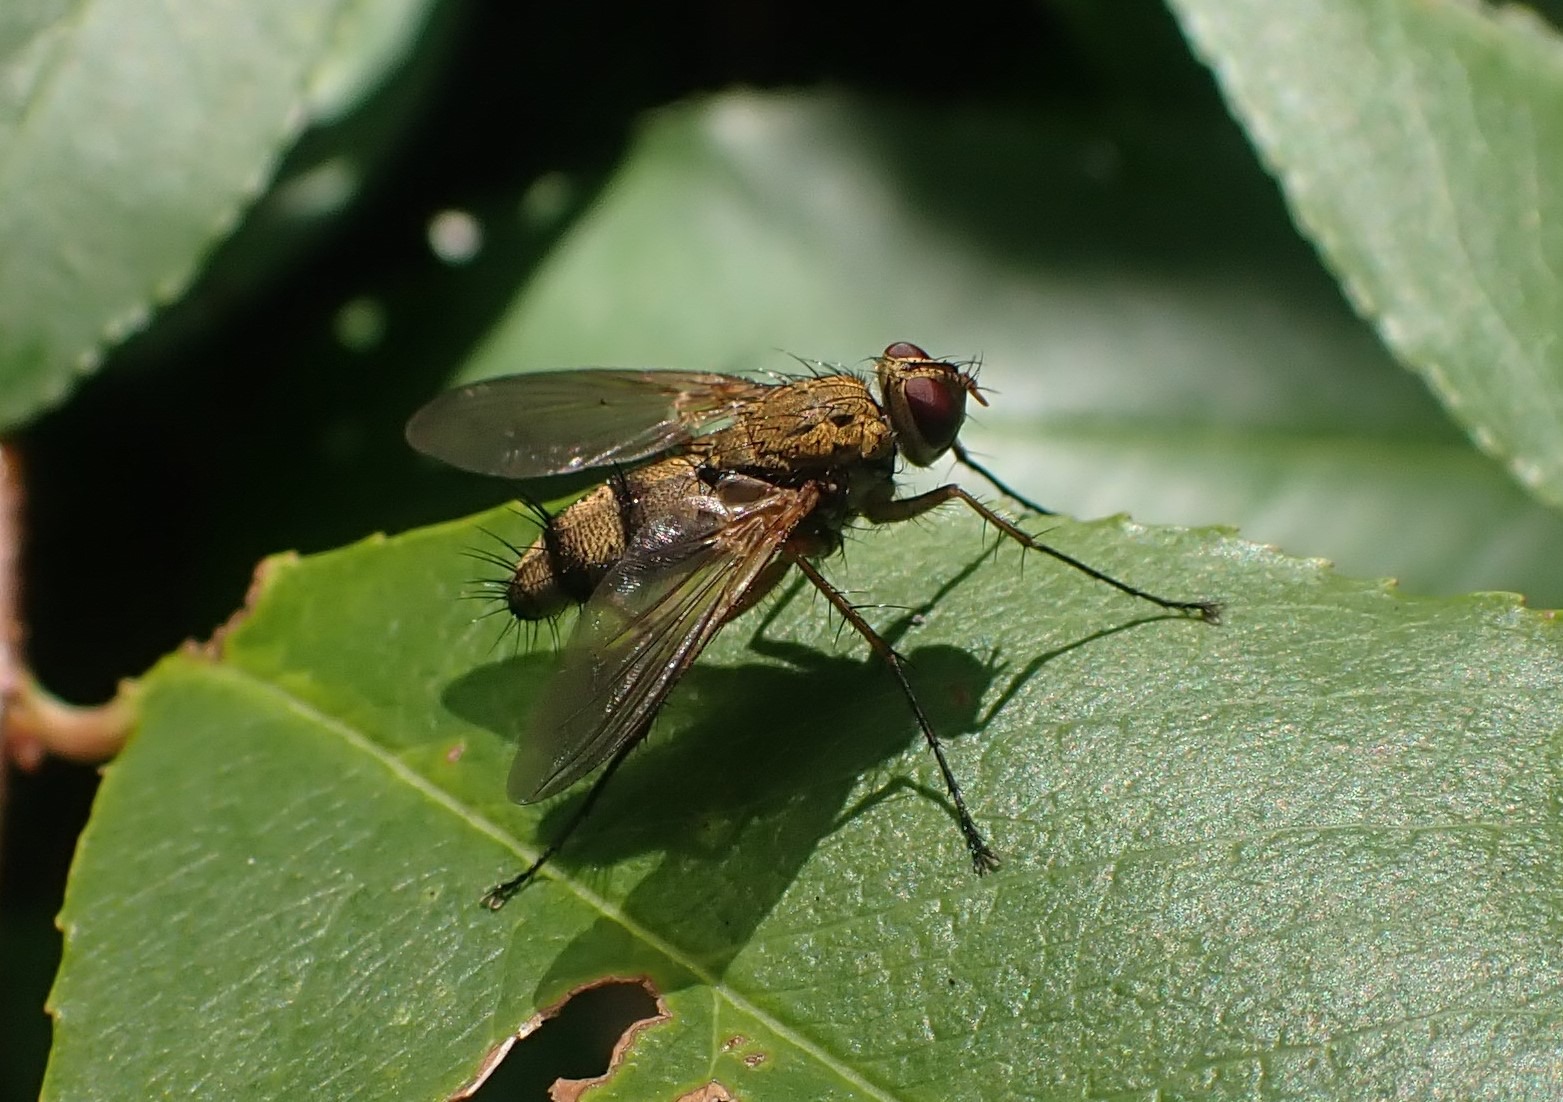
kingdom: Animalia
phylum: Arthropoda
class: Insecta
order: Diptera
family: Tachinidae
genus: Dexiosoma
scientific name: Dexiosoma caninum
